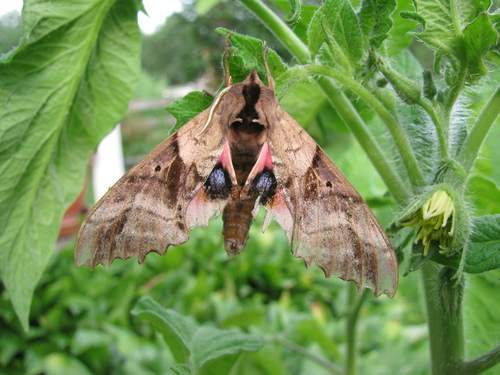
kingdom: Animalia
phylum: Arthropoda
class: Insecta
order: Lepidoptera
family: Sphingidae
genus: Paonias
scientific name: Paonias excaecata
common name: Blind-eyed sphinx
